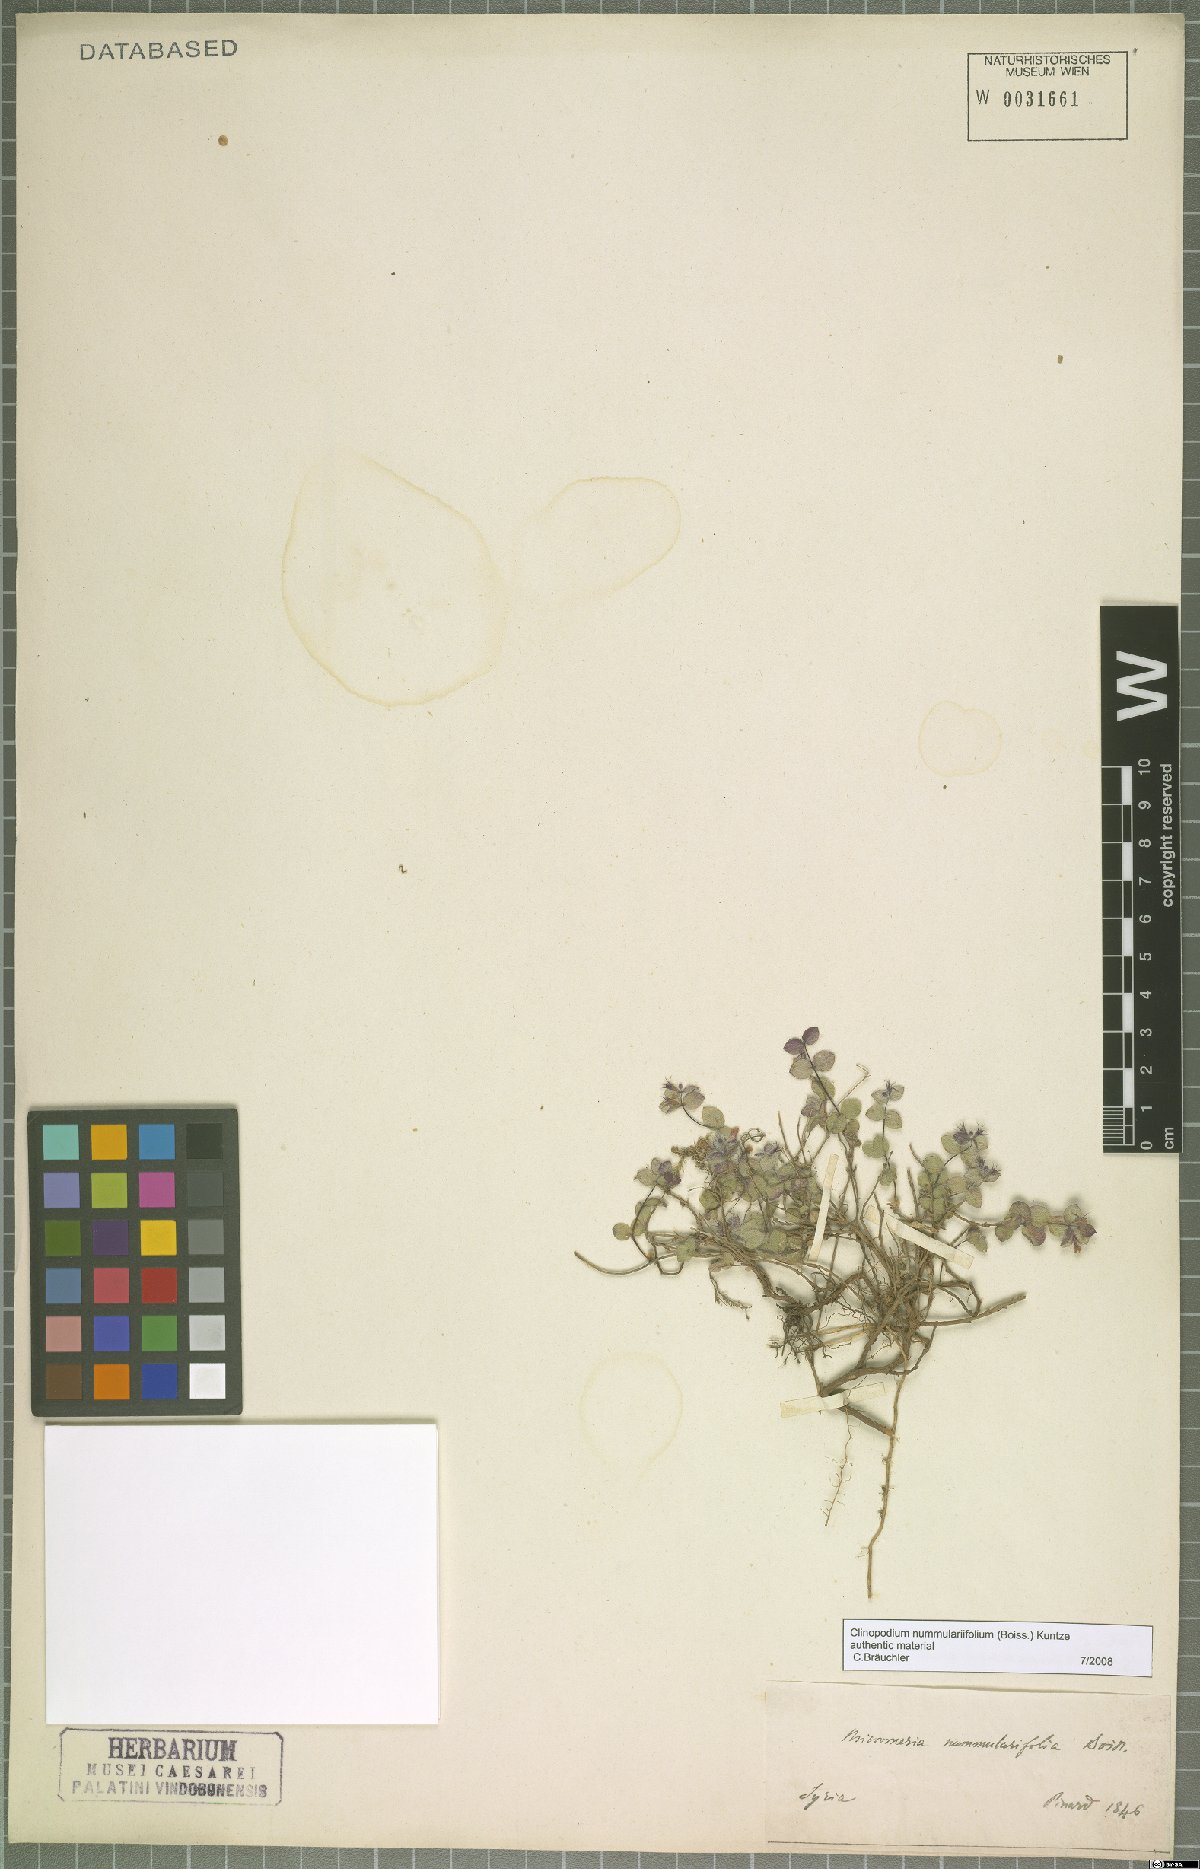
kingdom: Plantae
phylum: Tracheophyta
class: Magnoliopsida
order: Lamiales
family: Lamiaceae
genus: Clinopodium
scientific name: Clinopodium nummulariifolium
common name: Nummular-leaved savory
